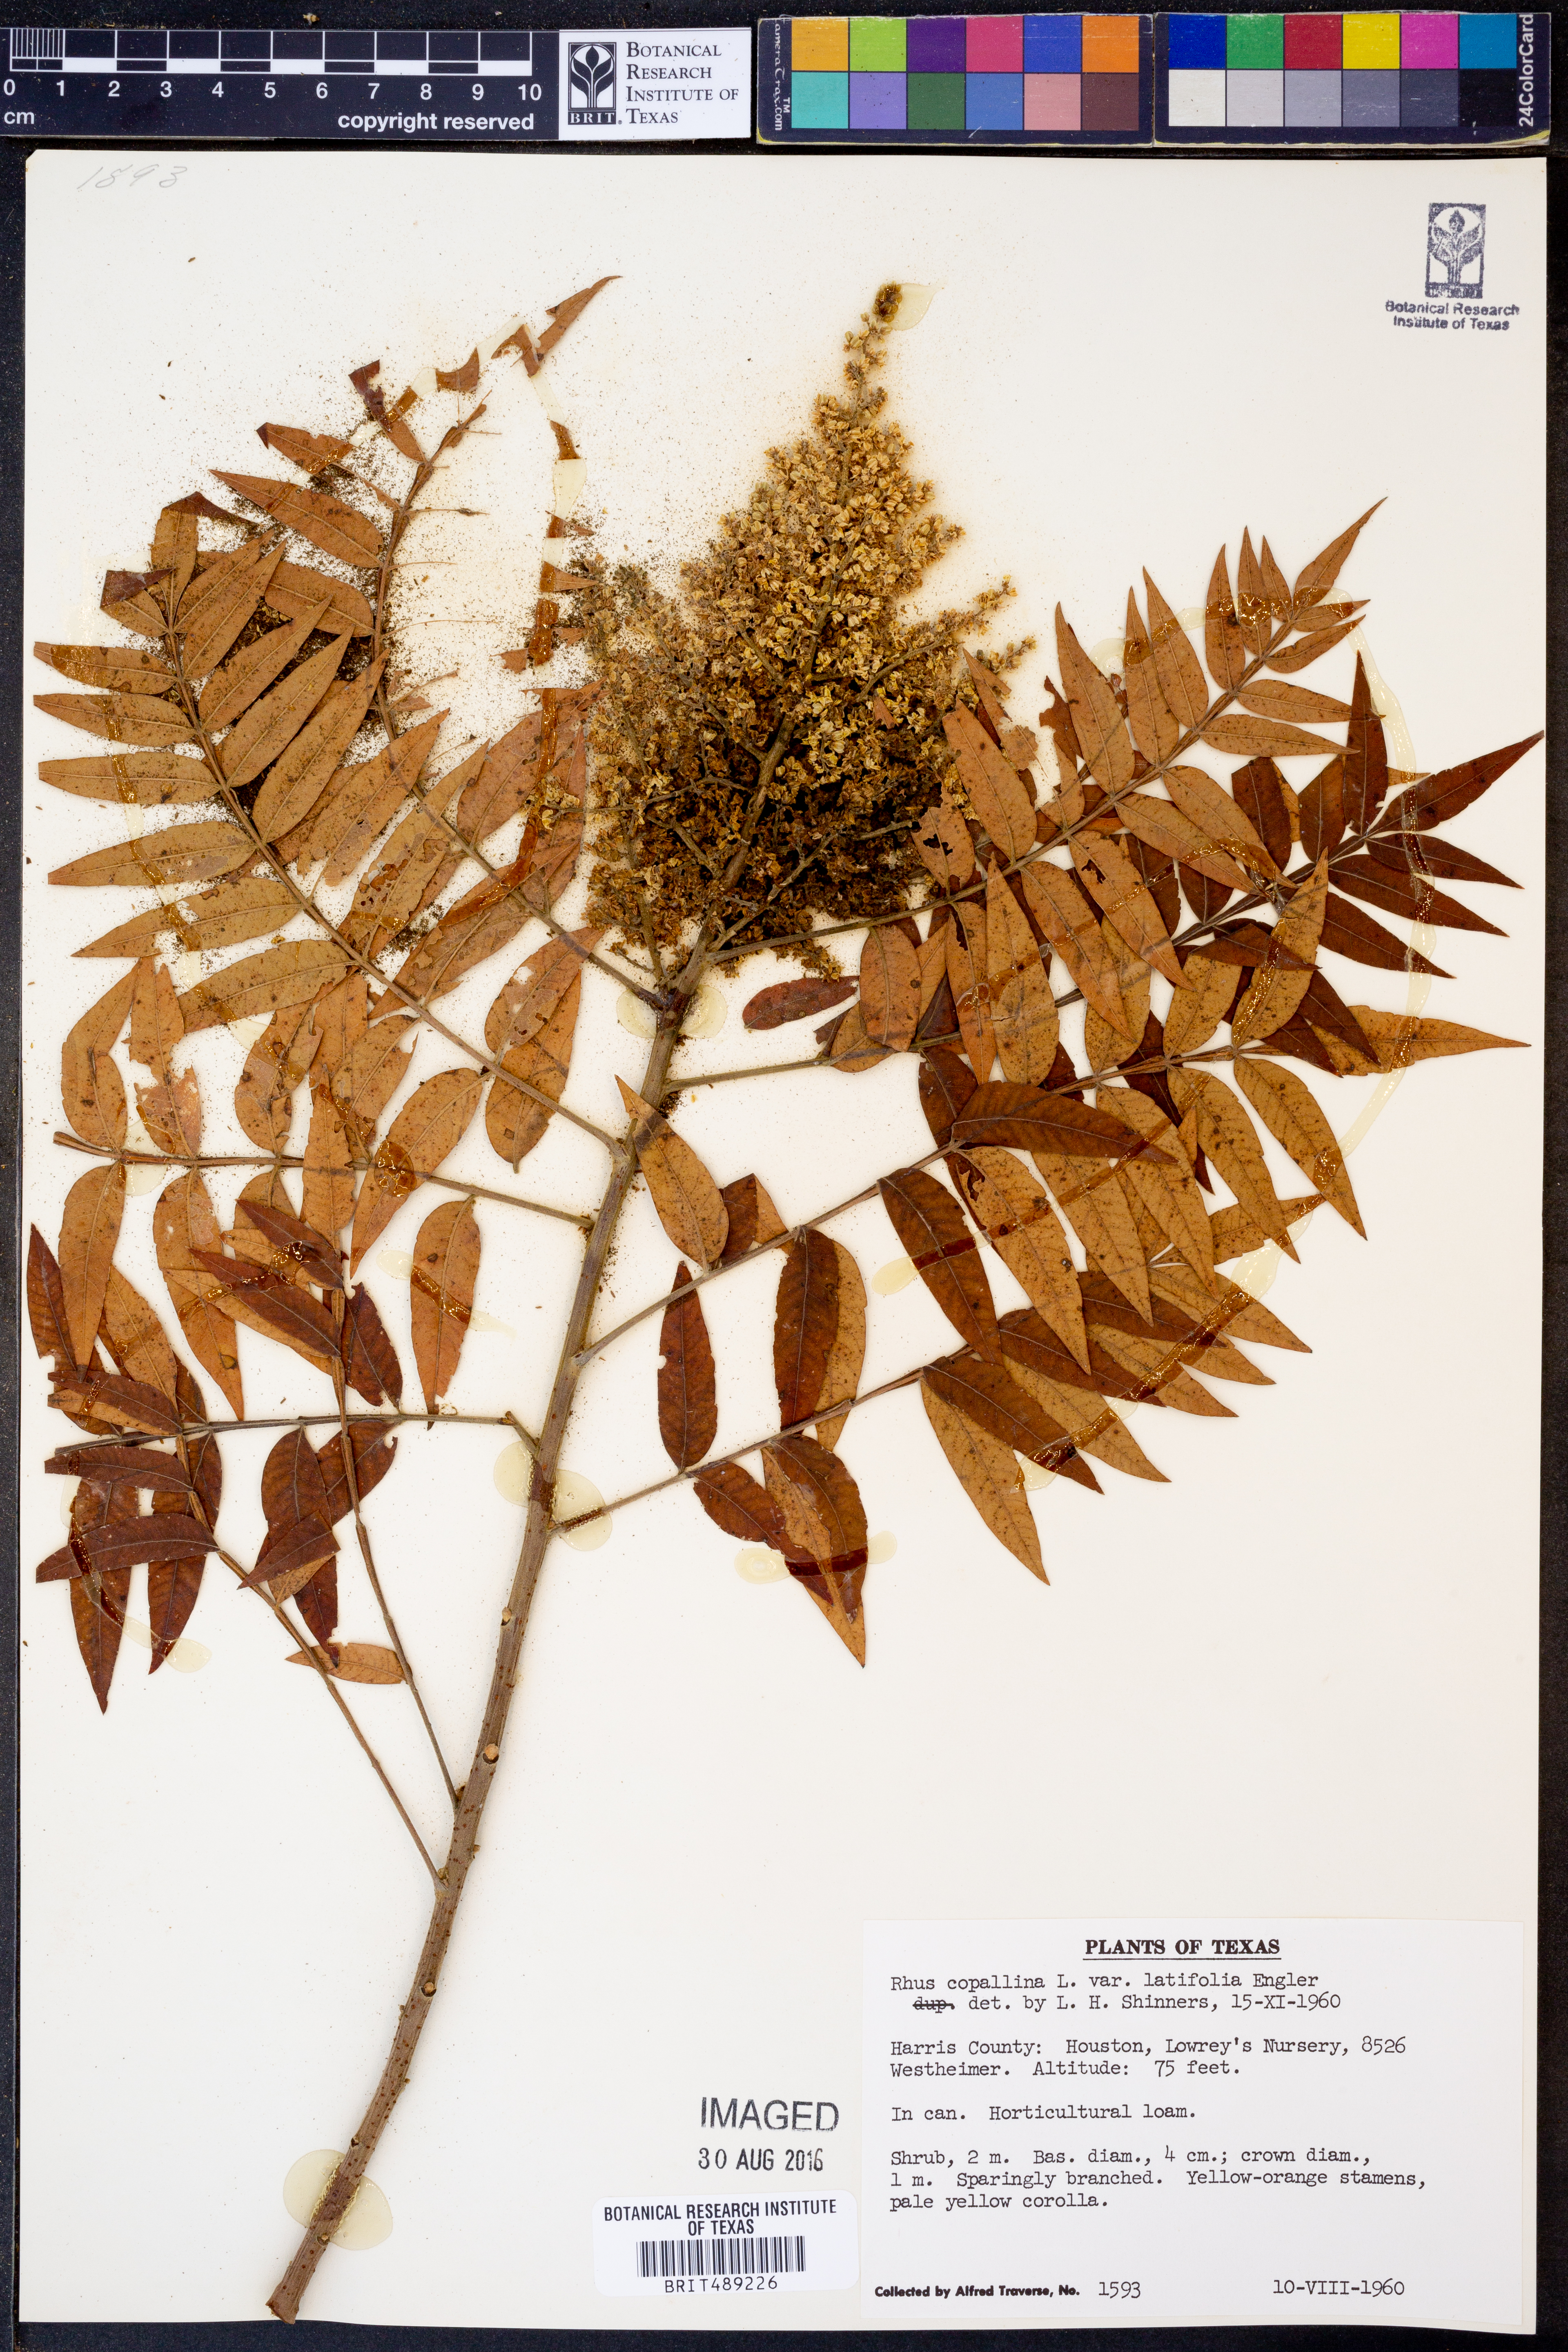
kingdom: Plantae
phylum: Tracheophyta
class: Magnoliopsida
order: Sapindales
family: Anacardiaceae
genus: Rhus
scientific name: Rhus copallina
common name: Shining sumac
